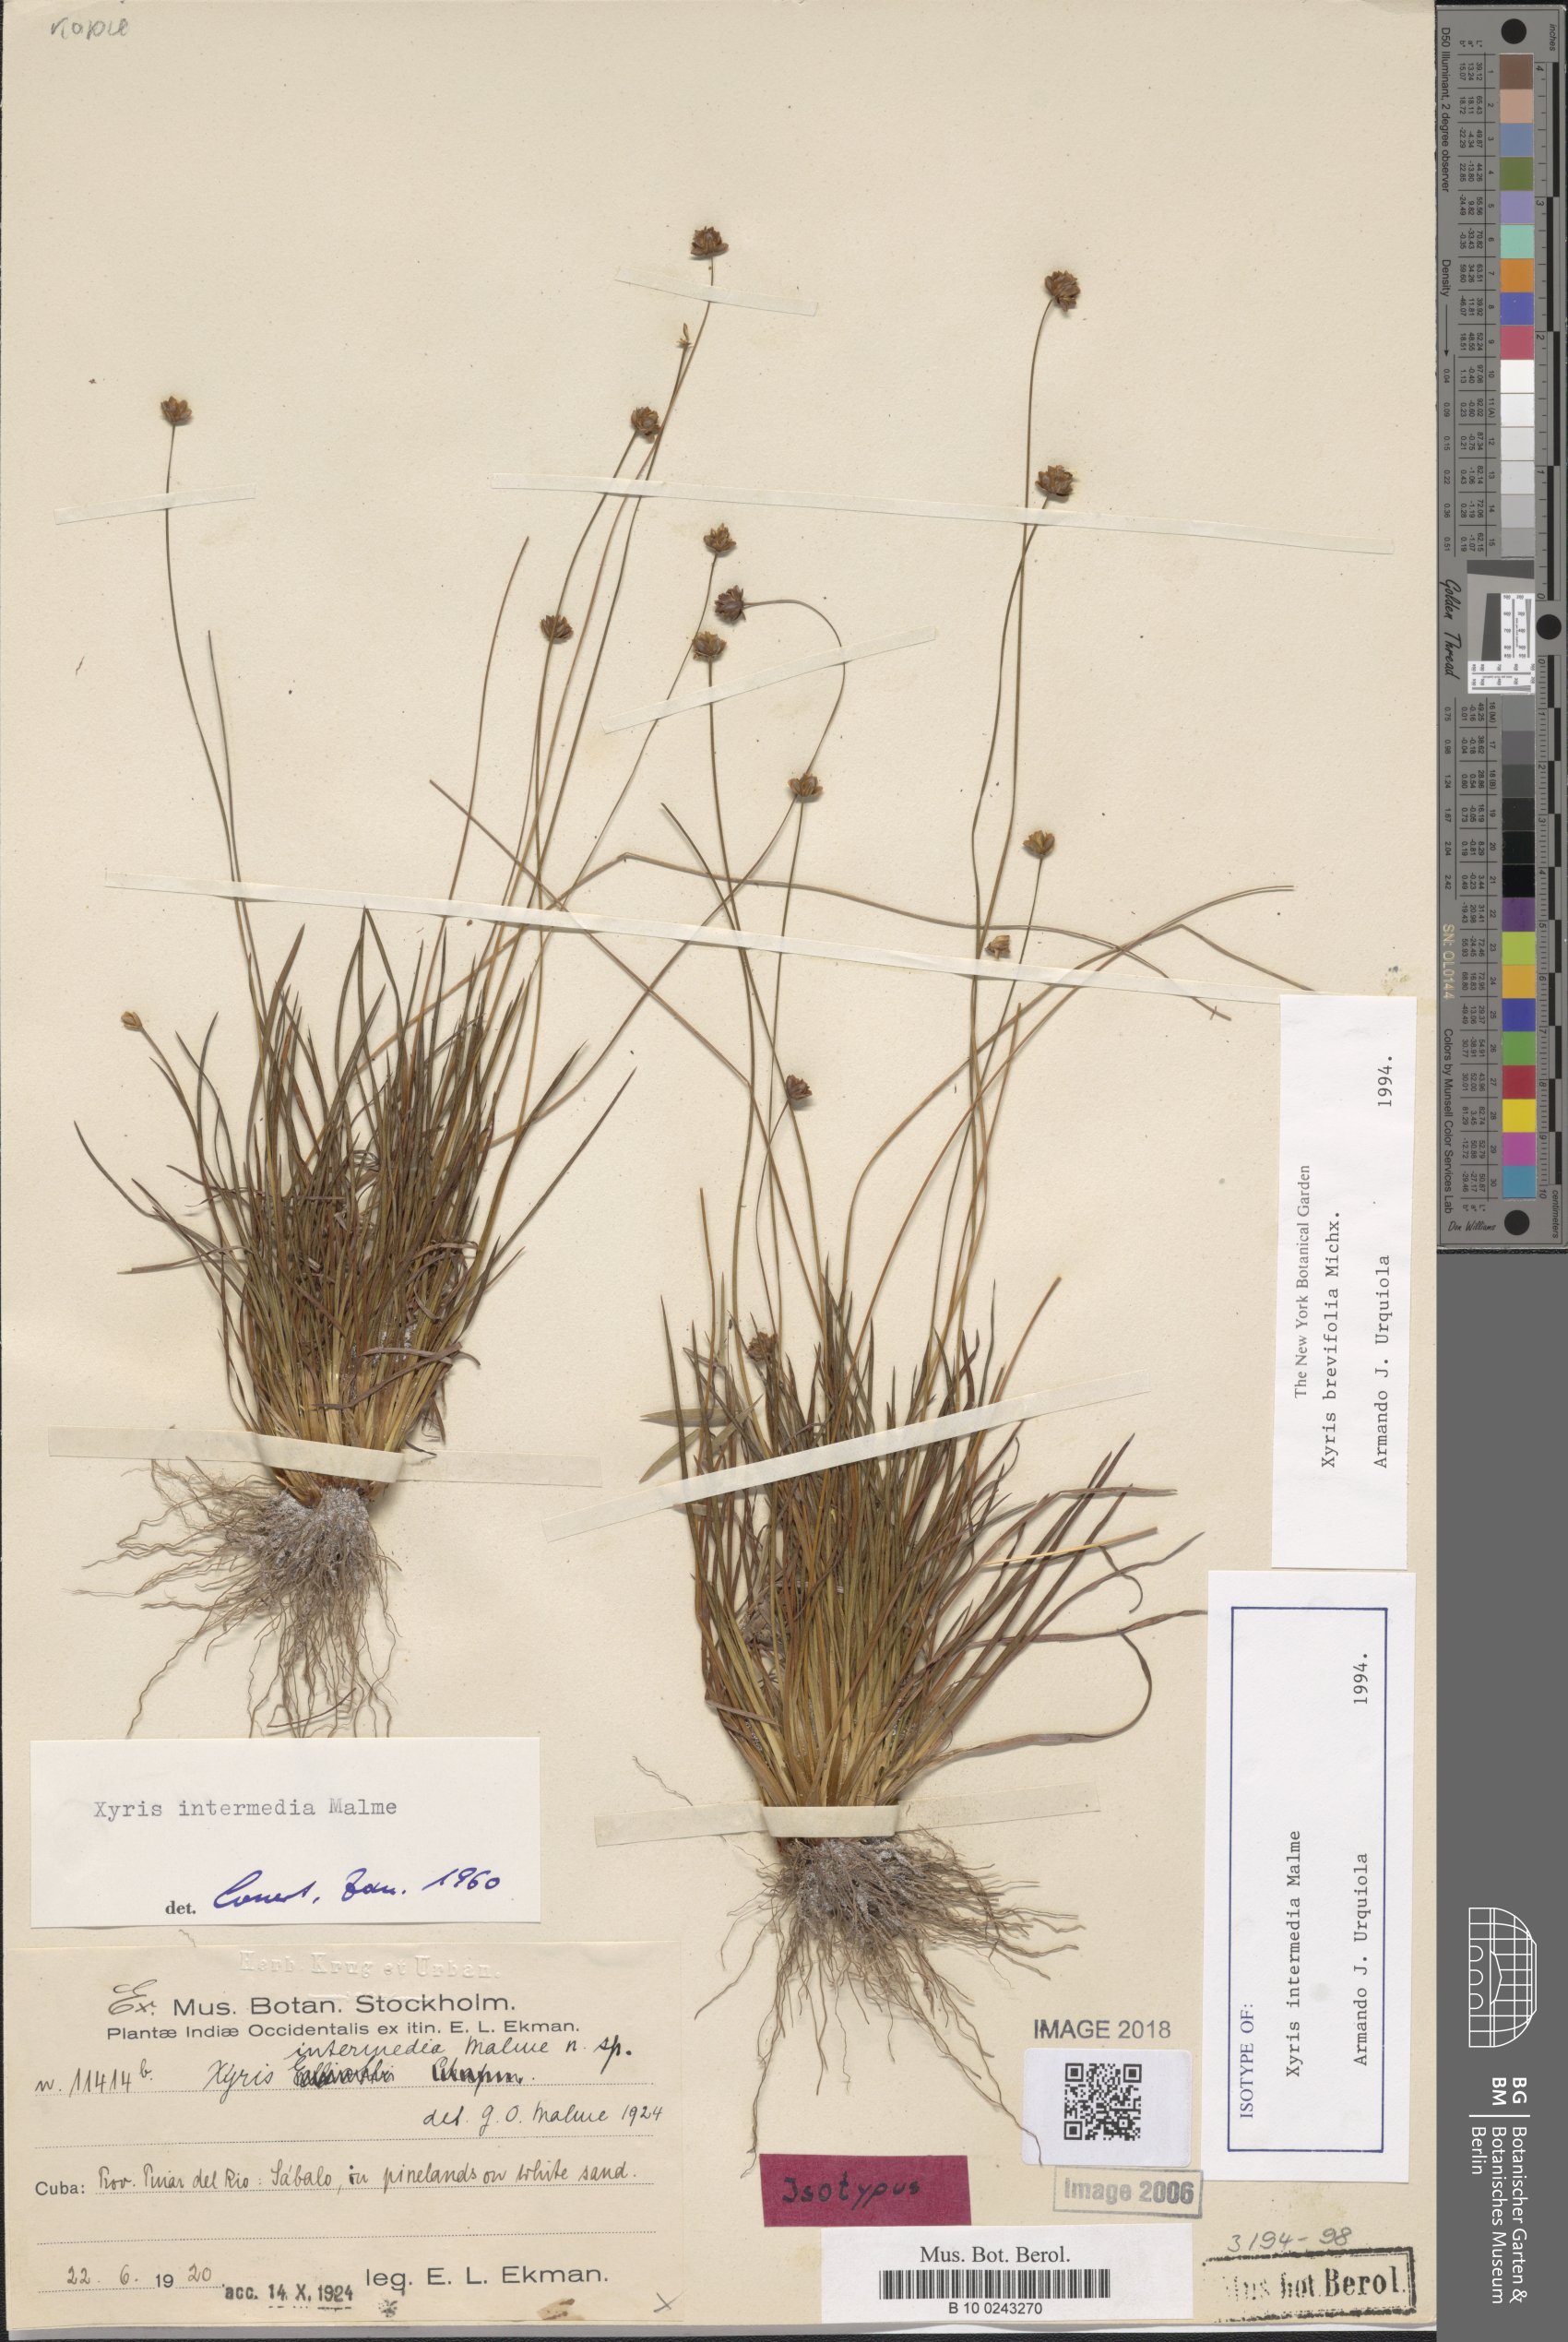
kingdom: Plantae
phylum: Tracheophyta
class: Liliopsida
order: Poales
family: Xyridaceae
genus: Xyris
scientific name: Xyris brevifolia
